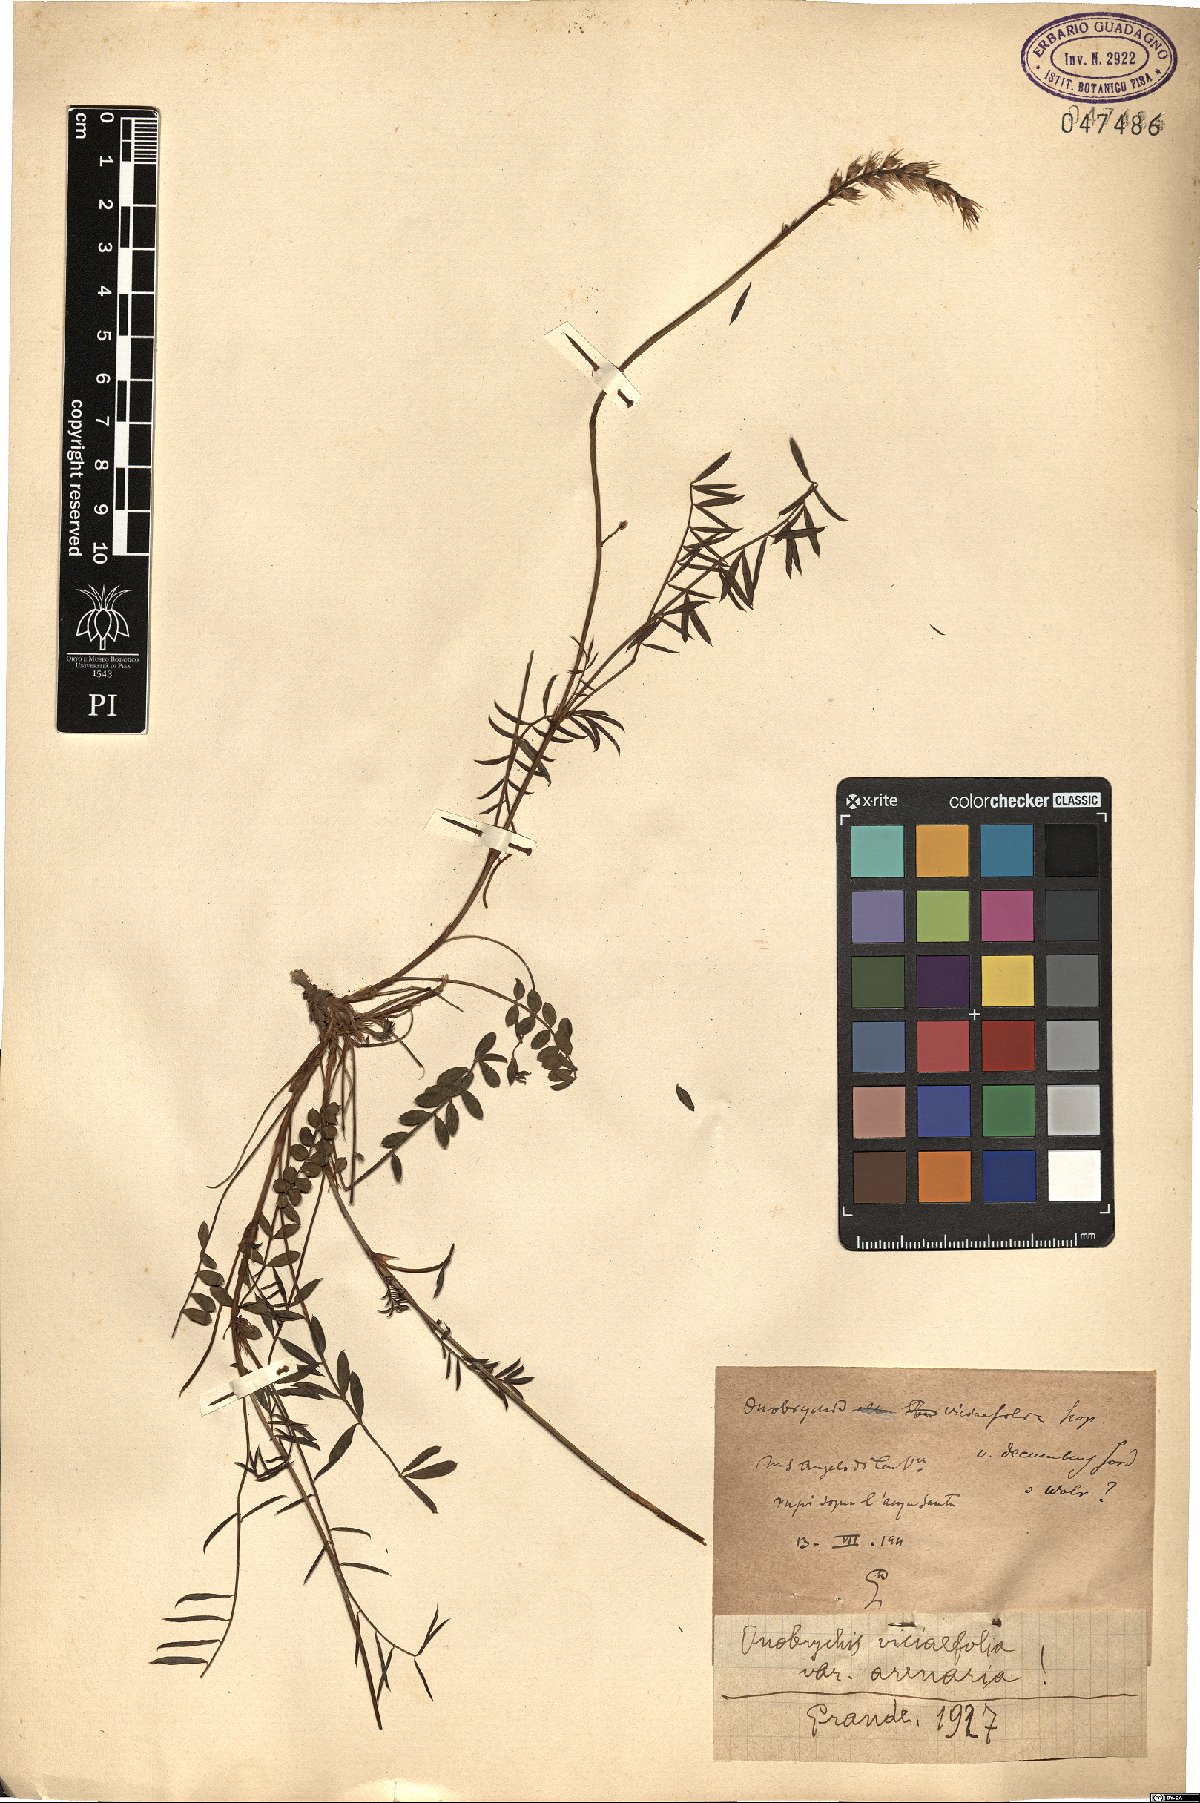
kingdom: Plantae
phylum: Tracheophyta
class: Magnoliopsida
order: Fabales
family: Fabaceae
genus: Onobrychis
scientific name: Onobrychis arenaria
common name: Sand esparcet
